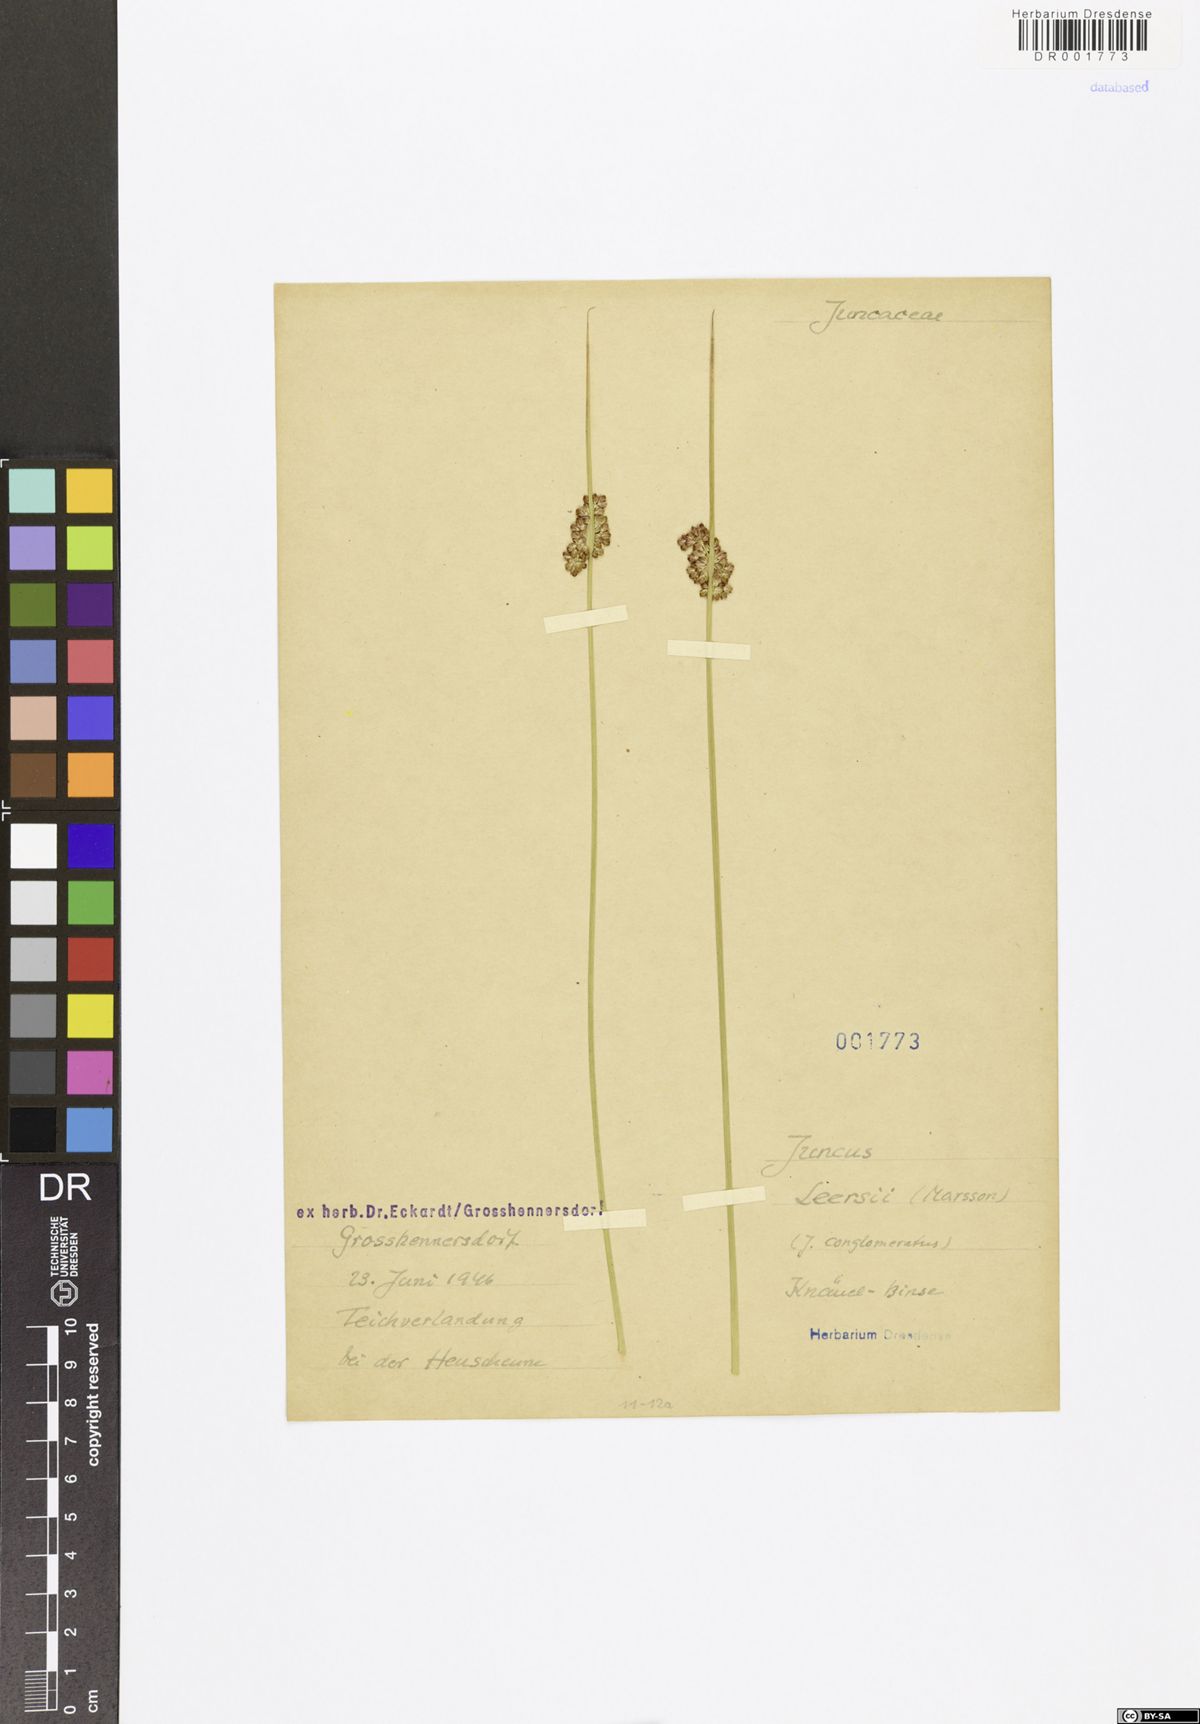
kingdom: Plantae
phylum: Tracheophyta
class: Liliopsida
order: Poales
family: Juncaceae
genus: Juncus
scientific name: Juncus conglomeratus
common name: Compact rush
